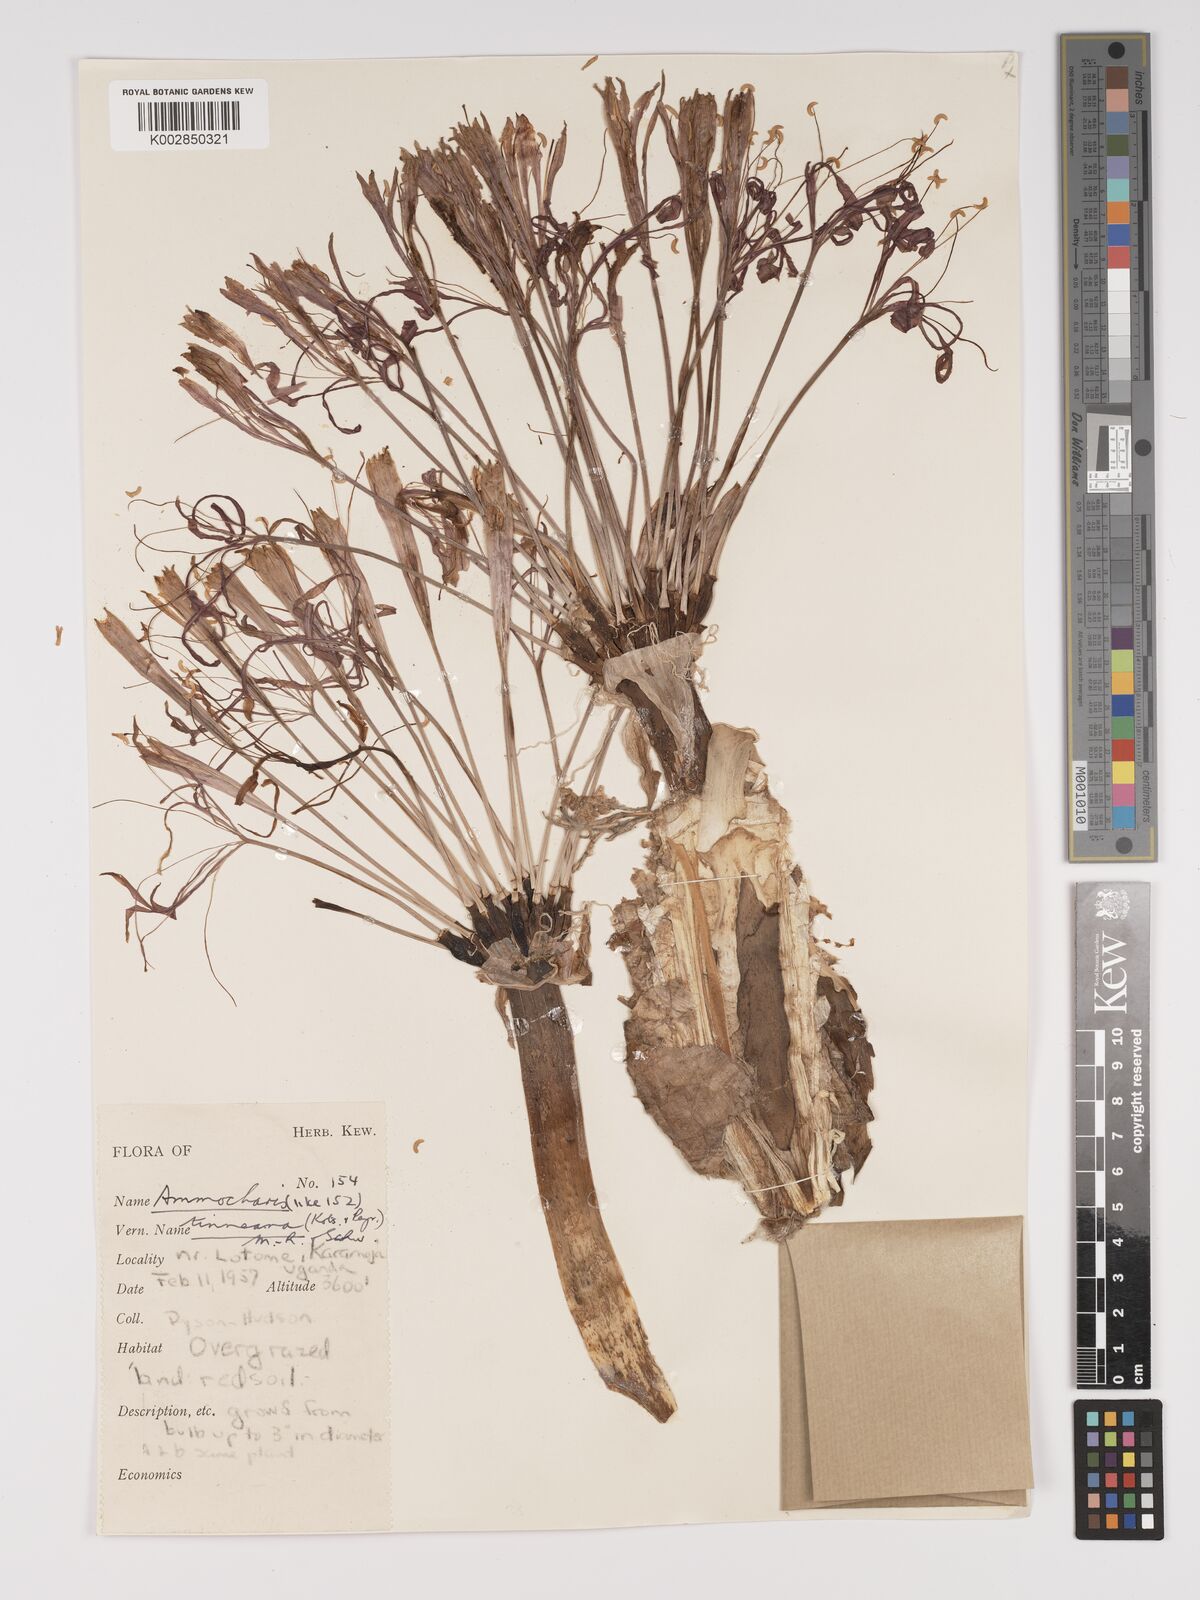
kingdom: Plantae
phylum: Tracheophyta
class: Liliopsida
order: Asparagales
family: Amaryllidaceae
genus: Ammocharis
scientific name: Ammocharis tinneana
